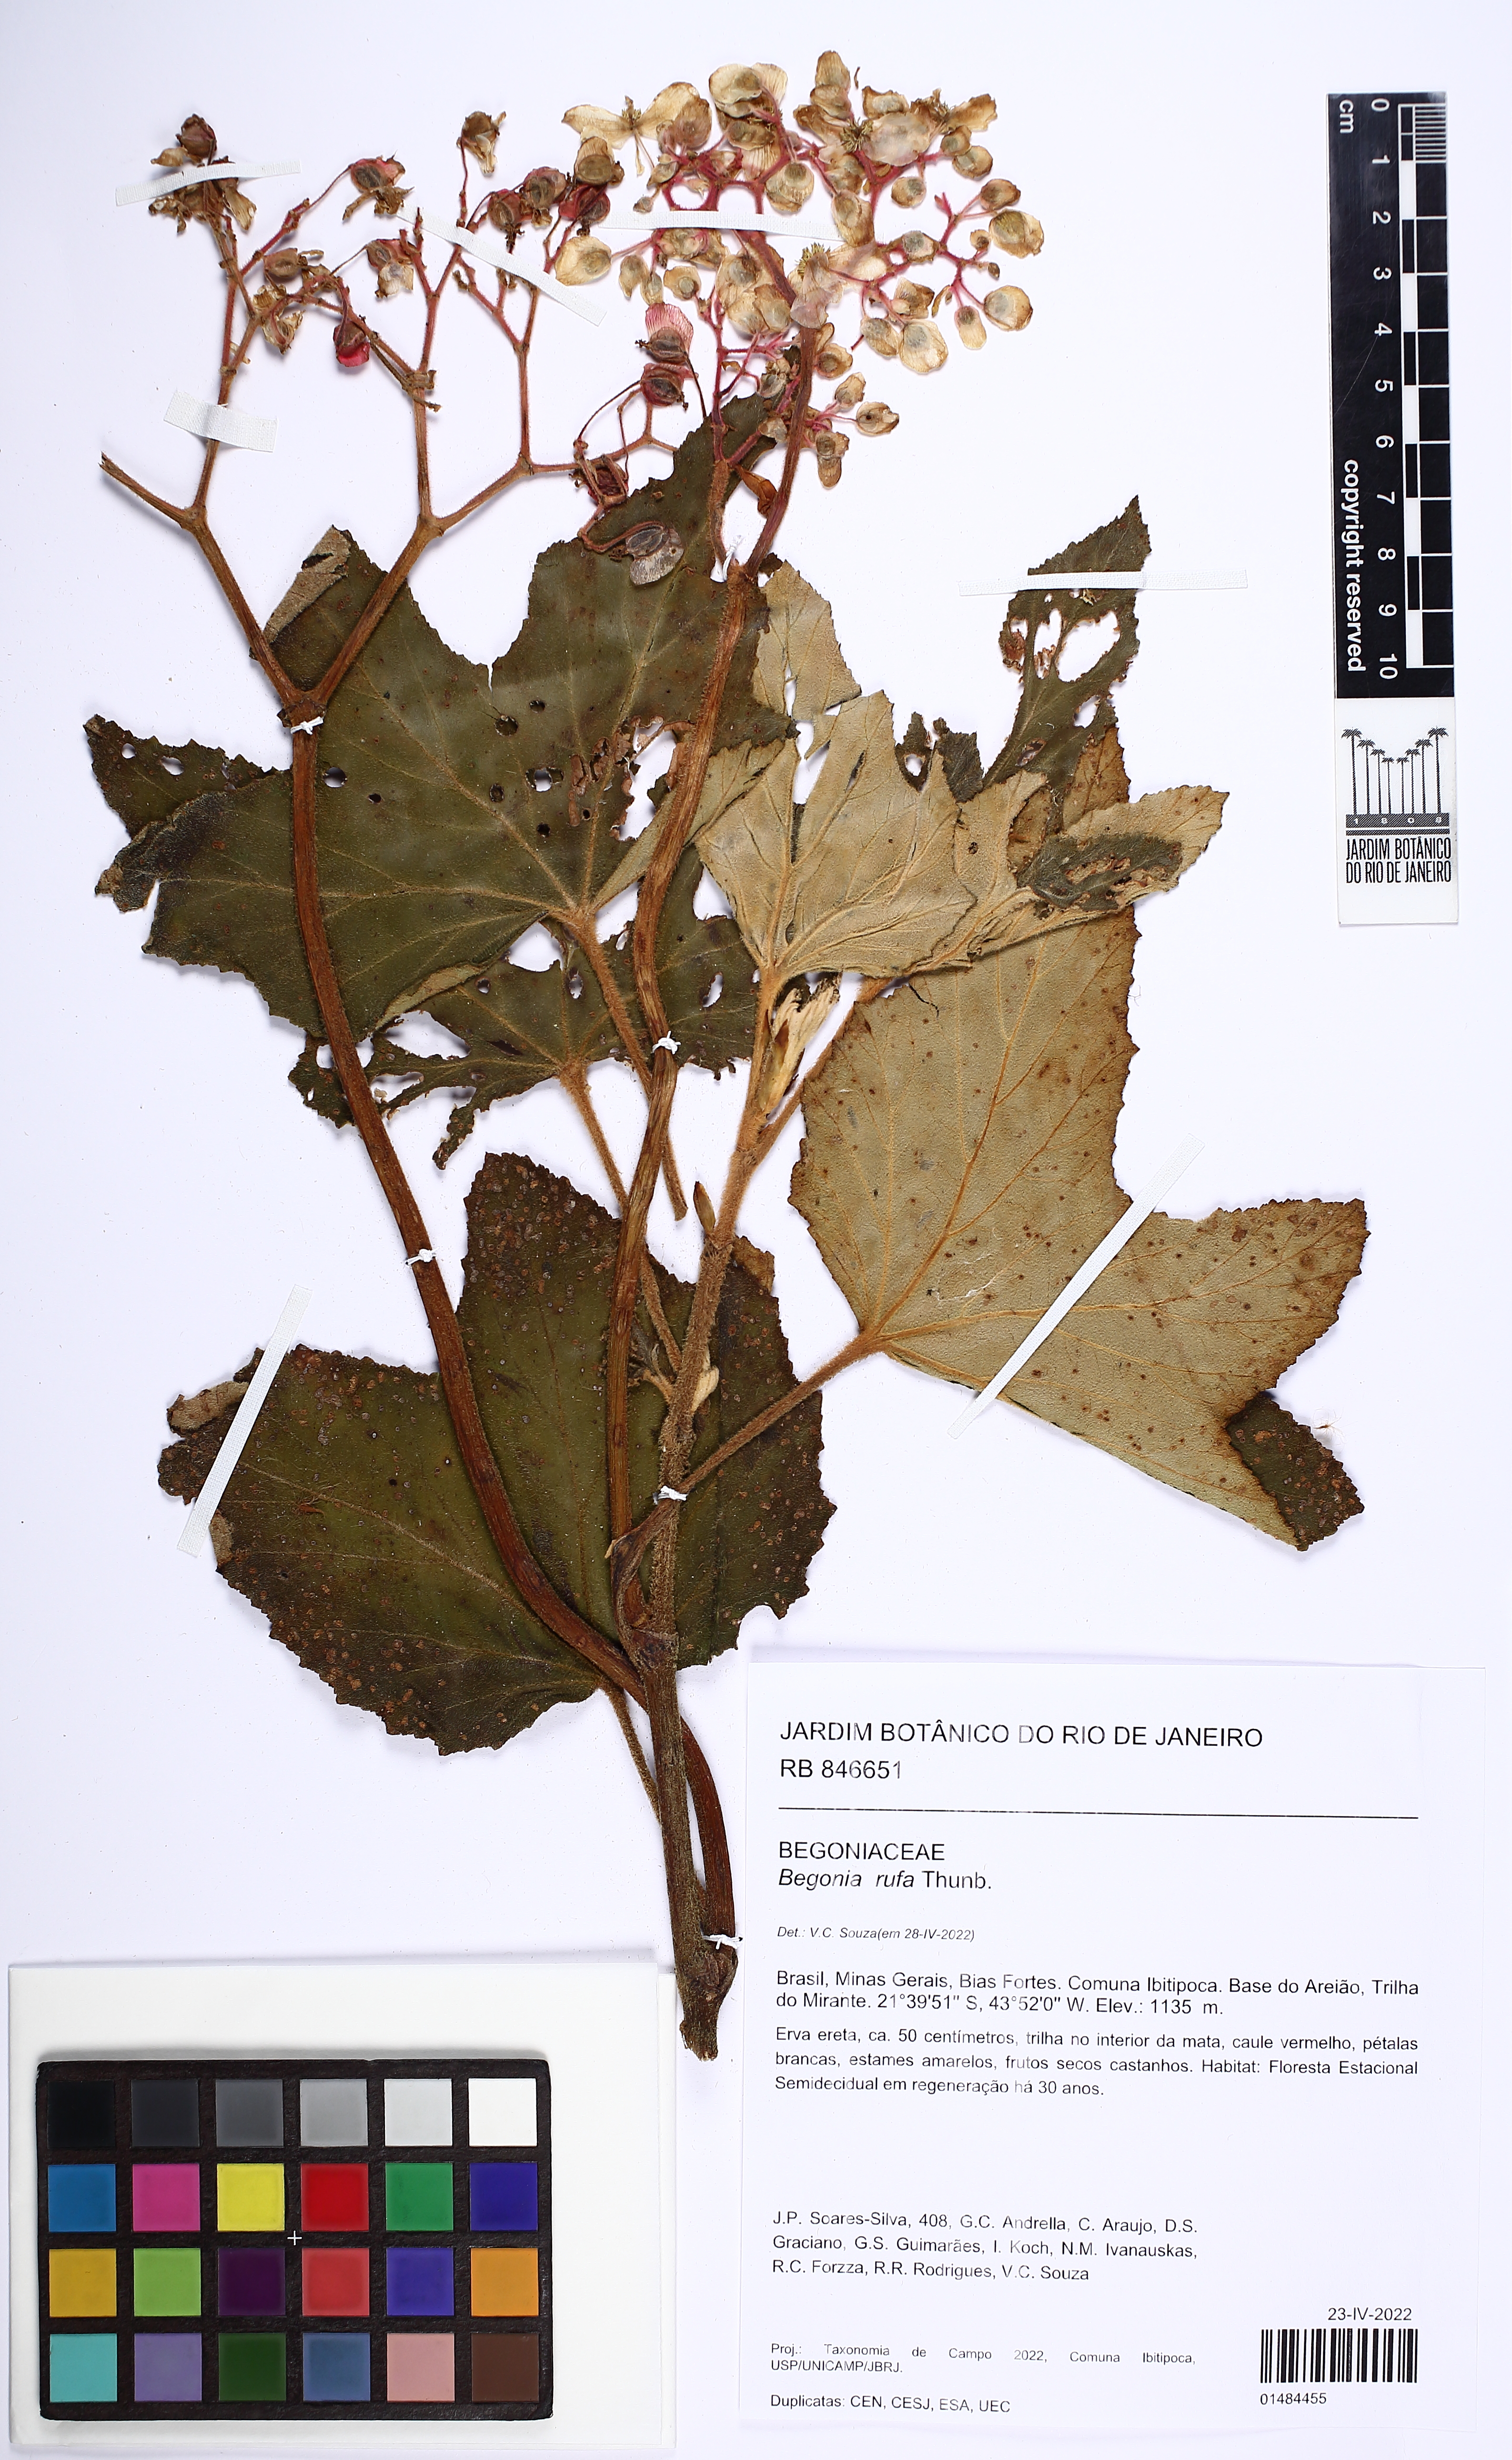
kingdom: Plantae
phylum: Tracheophyta
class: Magnoliopsida
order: Cucurbitales
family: Begoniaceae
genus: Begonia
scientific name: Begonia rufa
